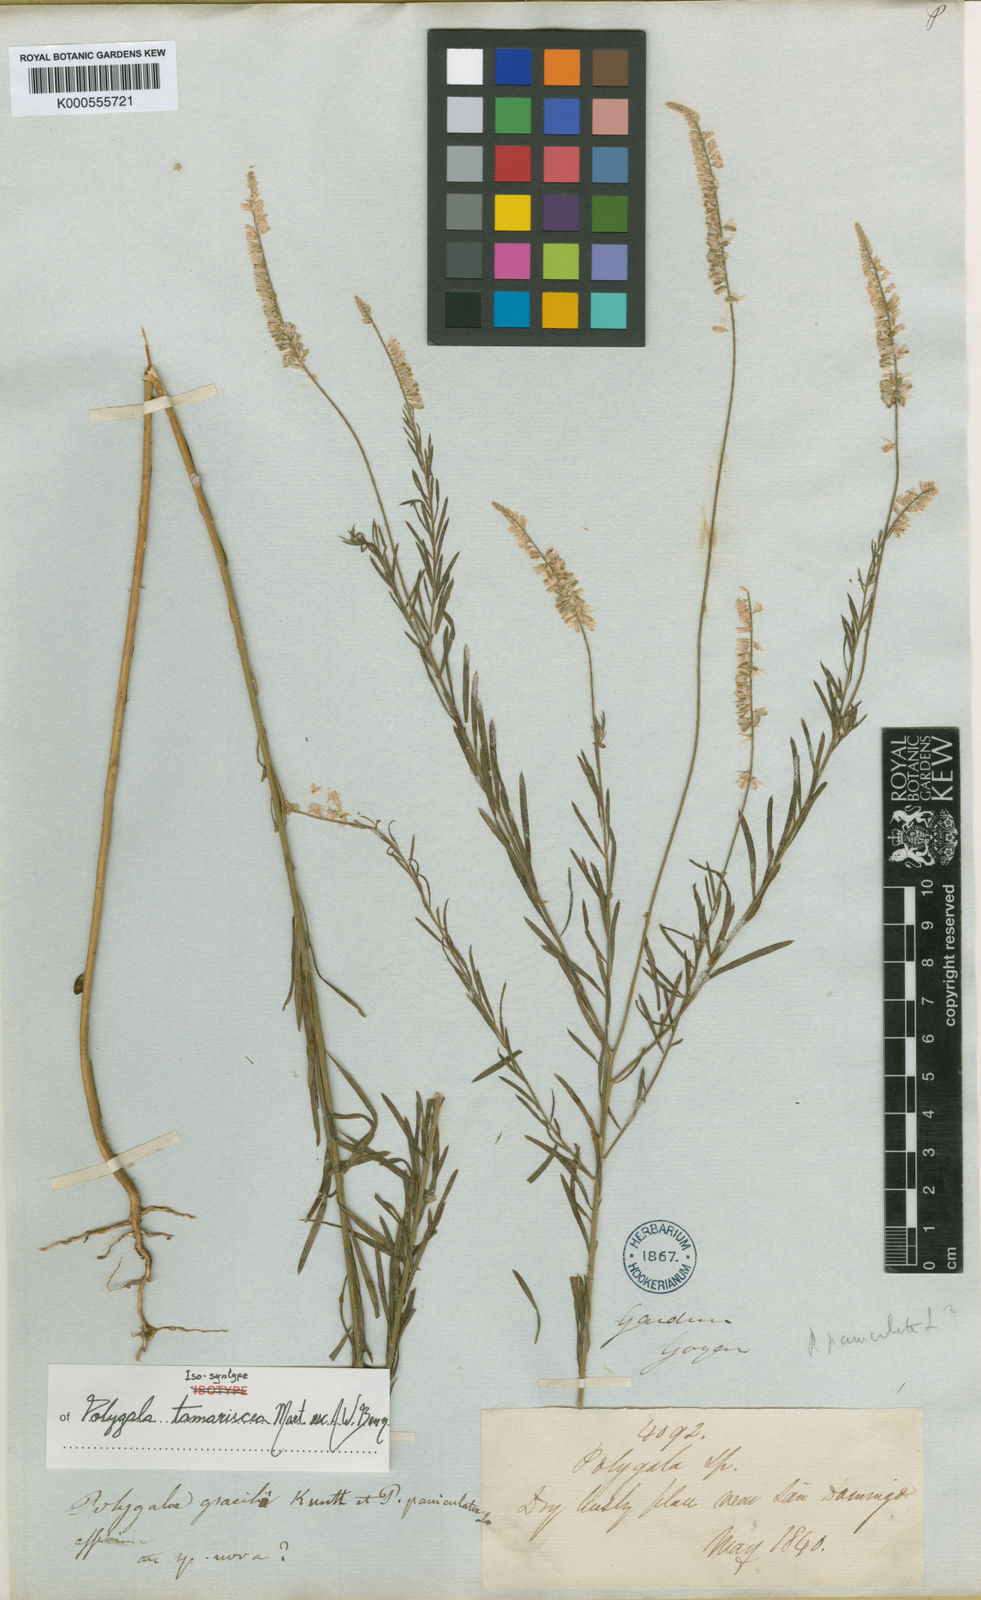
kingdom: Plantae
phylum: Tracheophyta
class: Magnoliopsida
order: Fabales
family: Polygalaceae
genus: Polygala
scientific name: Polygala
